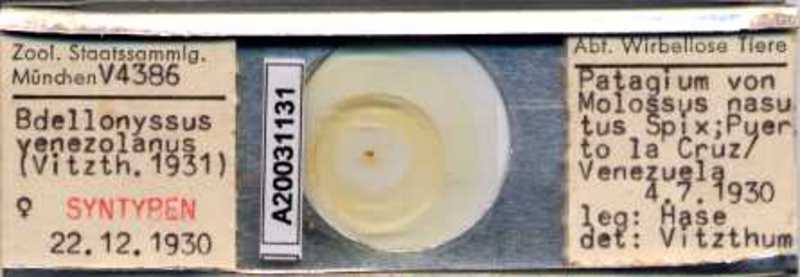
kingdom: Animalia
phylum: Arthropoda
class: Arachnida
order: Mesostigmata
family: Macronyssidae
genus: Chiroptonyssus
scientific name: Chiroptonyssus venezolanus
